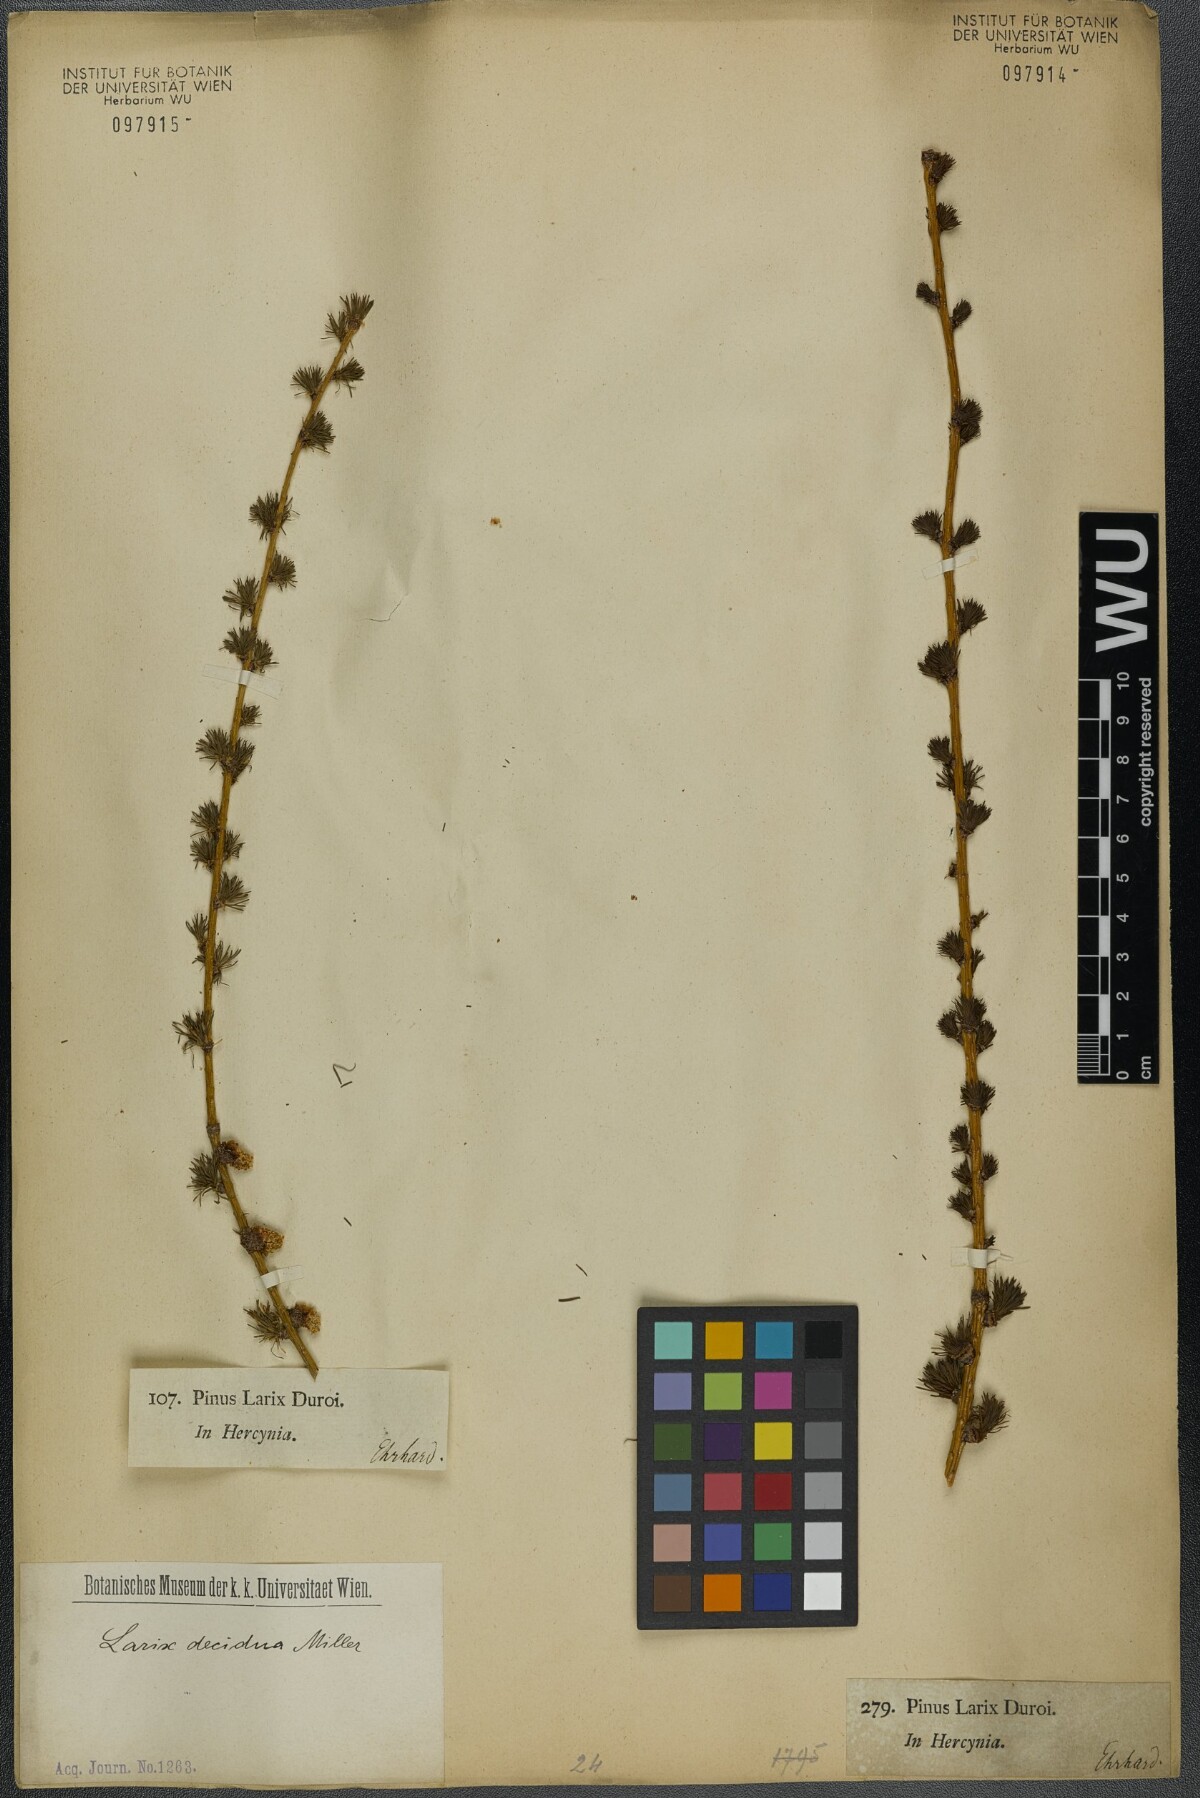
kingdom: Plantae
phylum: Tracheophyta
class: Pinopsida
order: Pinales
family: Pinaceae
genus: Larix
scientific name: Larix decidua
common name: European larch
